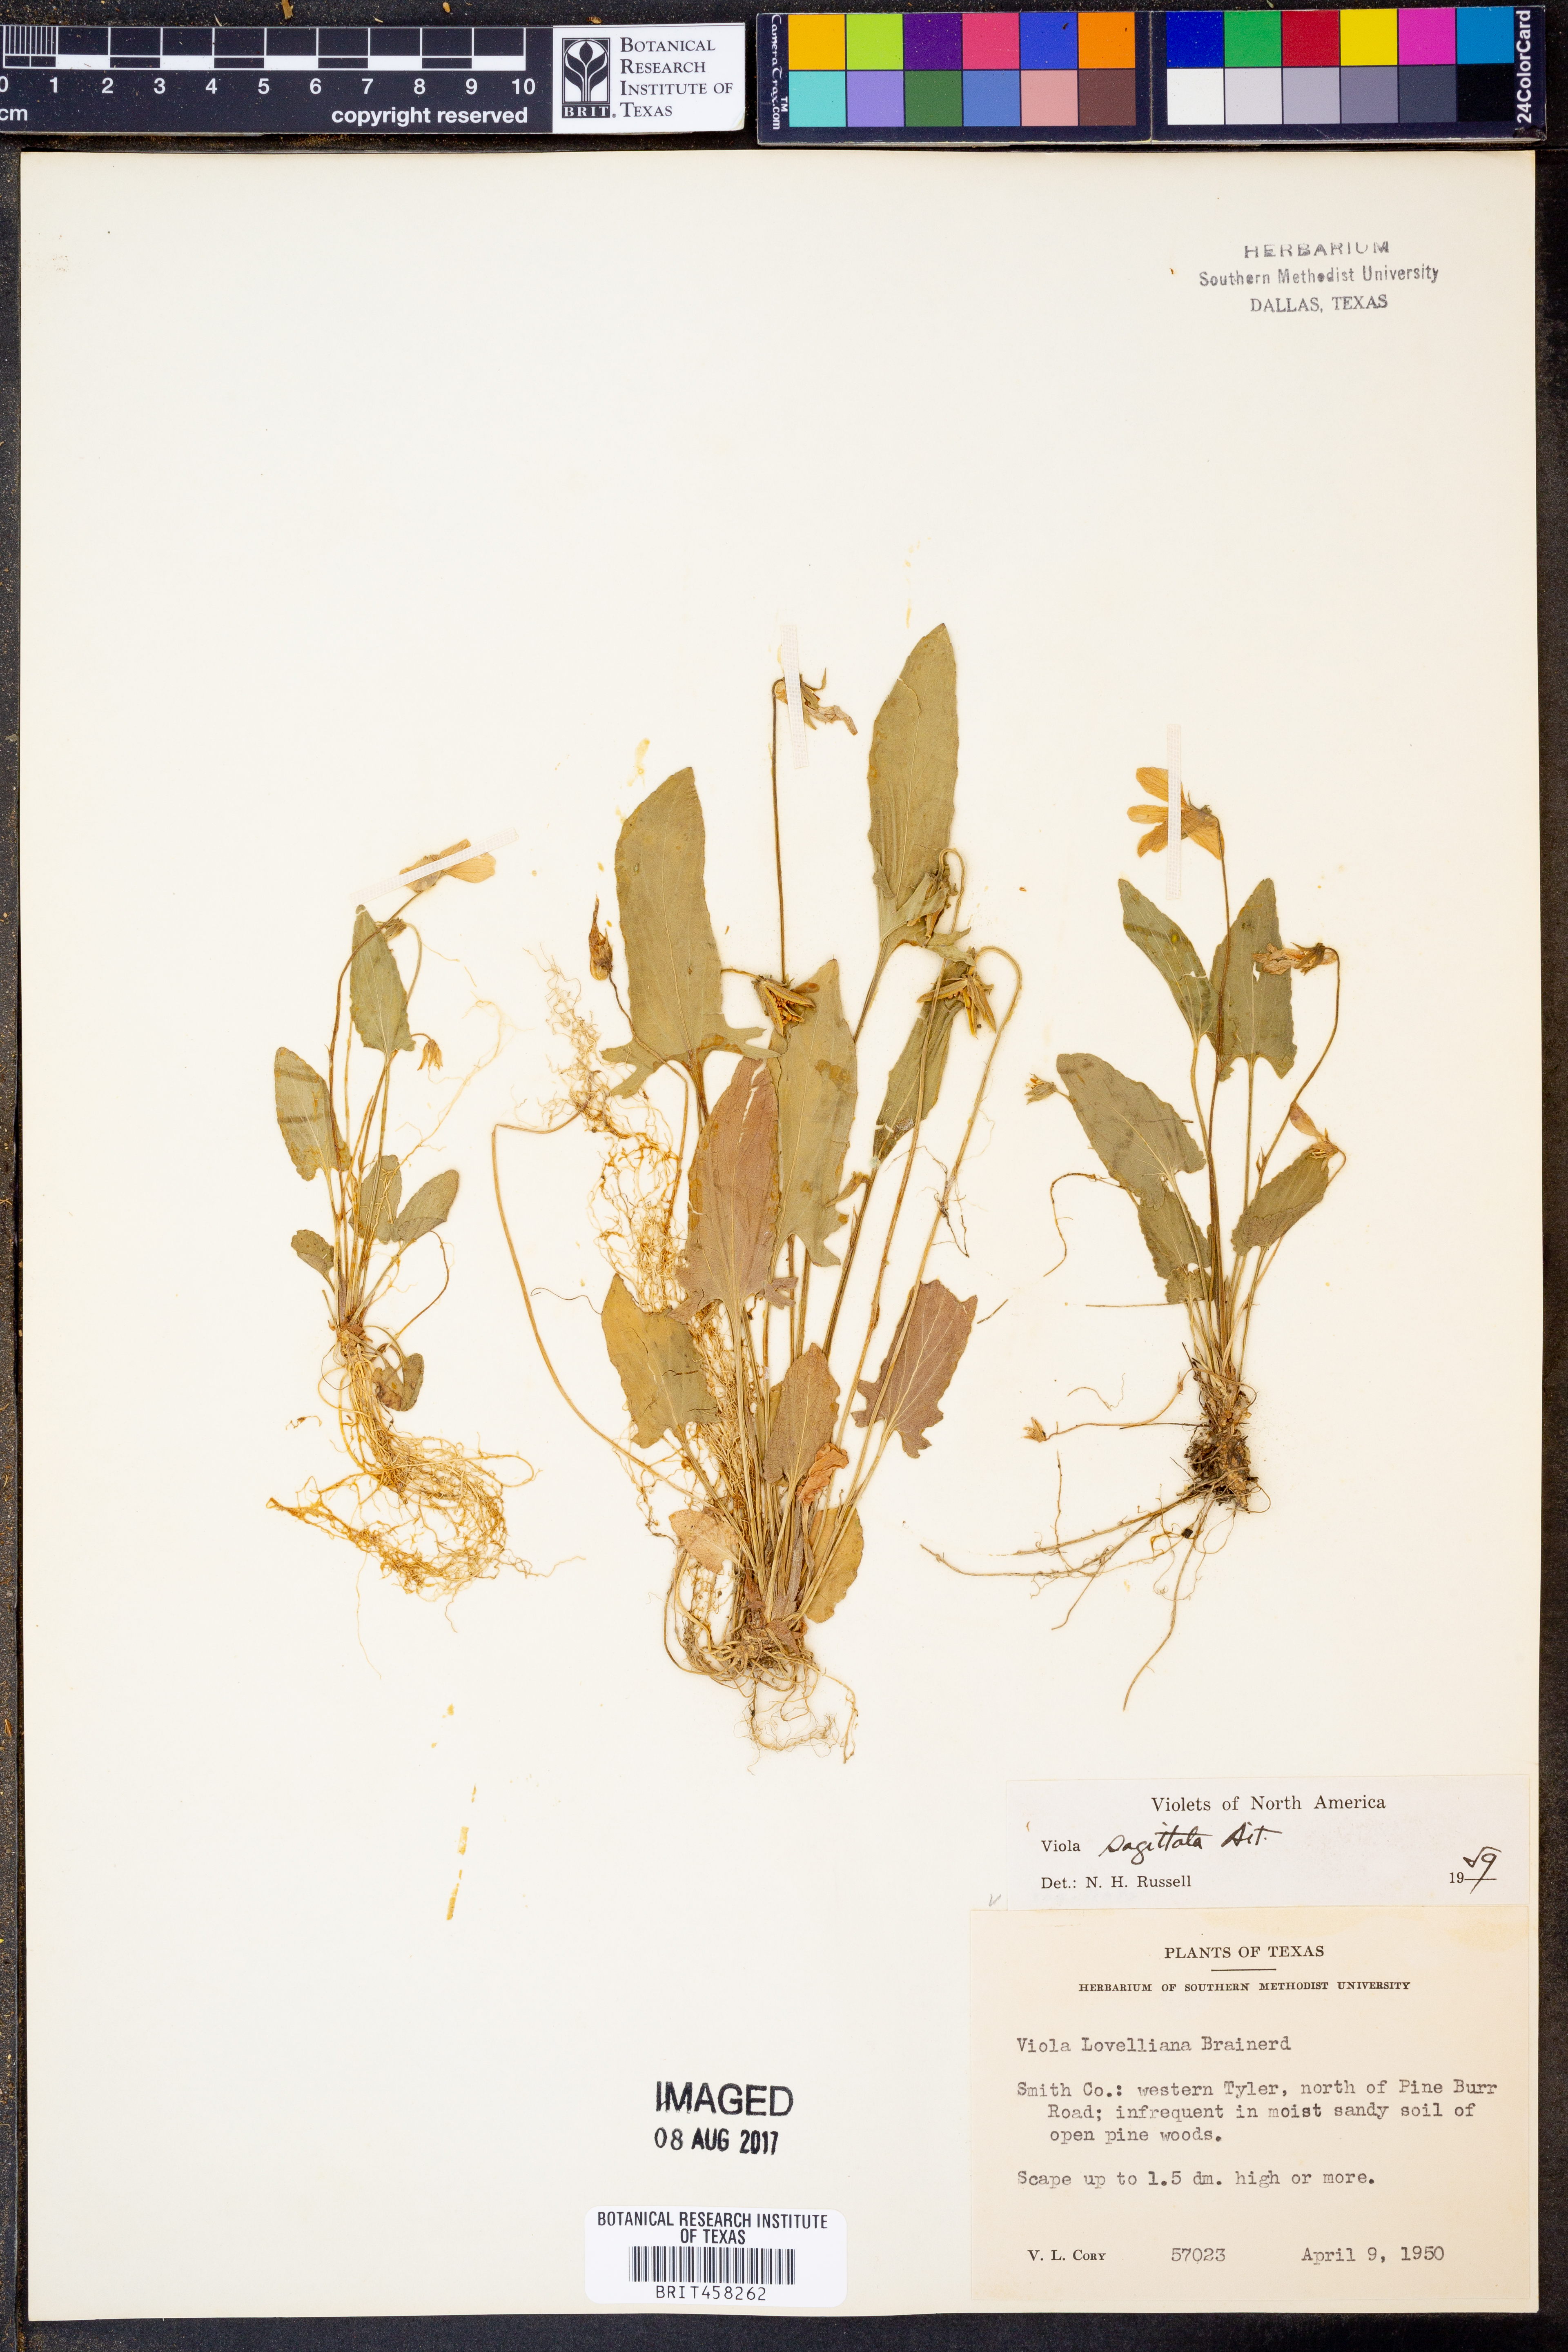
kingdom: Plantae
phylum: Tracheophyta
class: Magnoliopsida
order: Malpighiales
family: Violaceae
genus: Viola
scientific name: Viola sagittata
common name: Arrowhead violet
